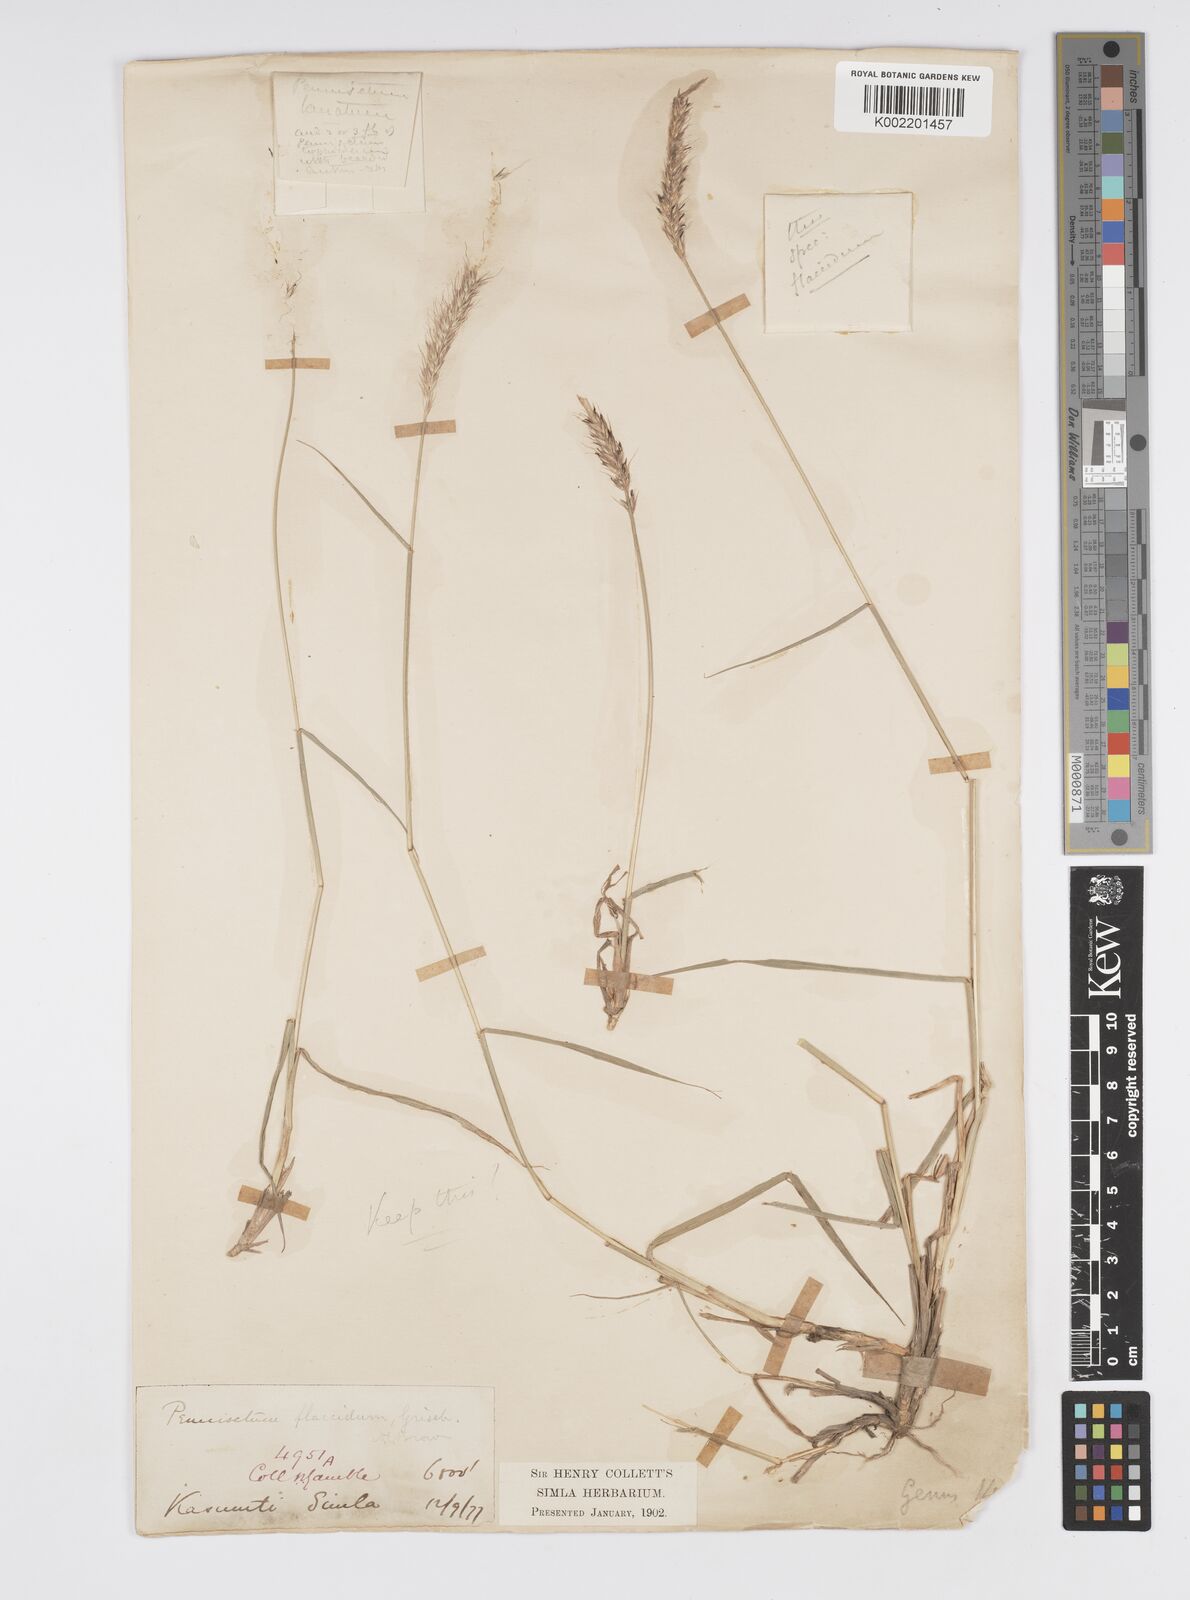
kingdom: Plantae
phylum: Tracheophyta
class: Liliopsida
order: Poales
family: Poaceae
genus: Cenchrus
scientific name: Cenchrus flaccidus
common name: Flaccid grass
